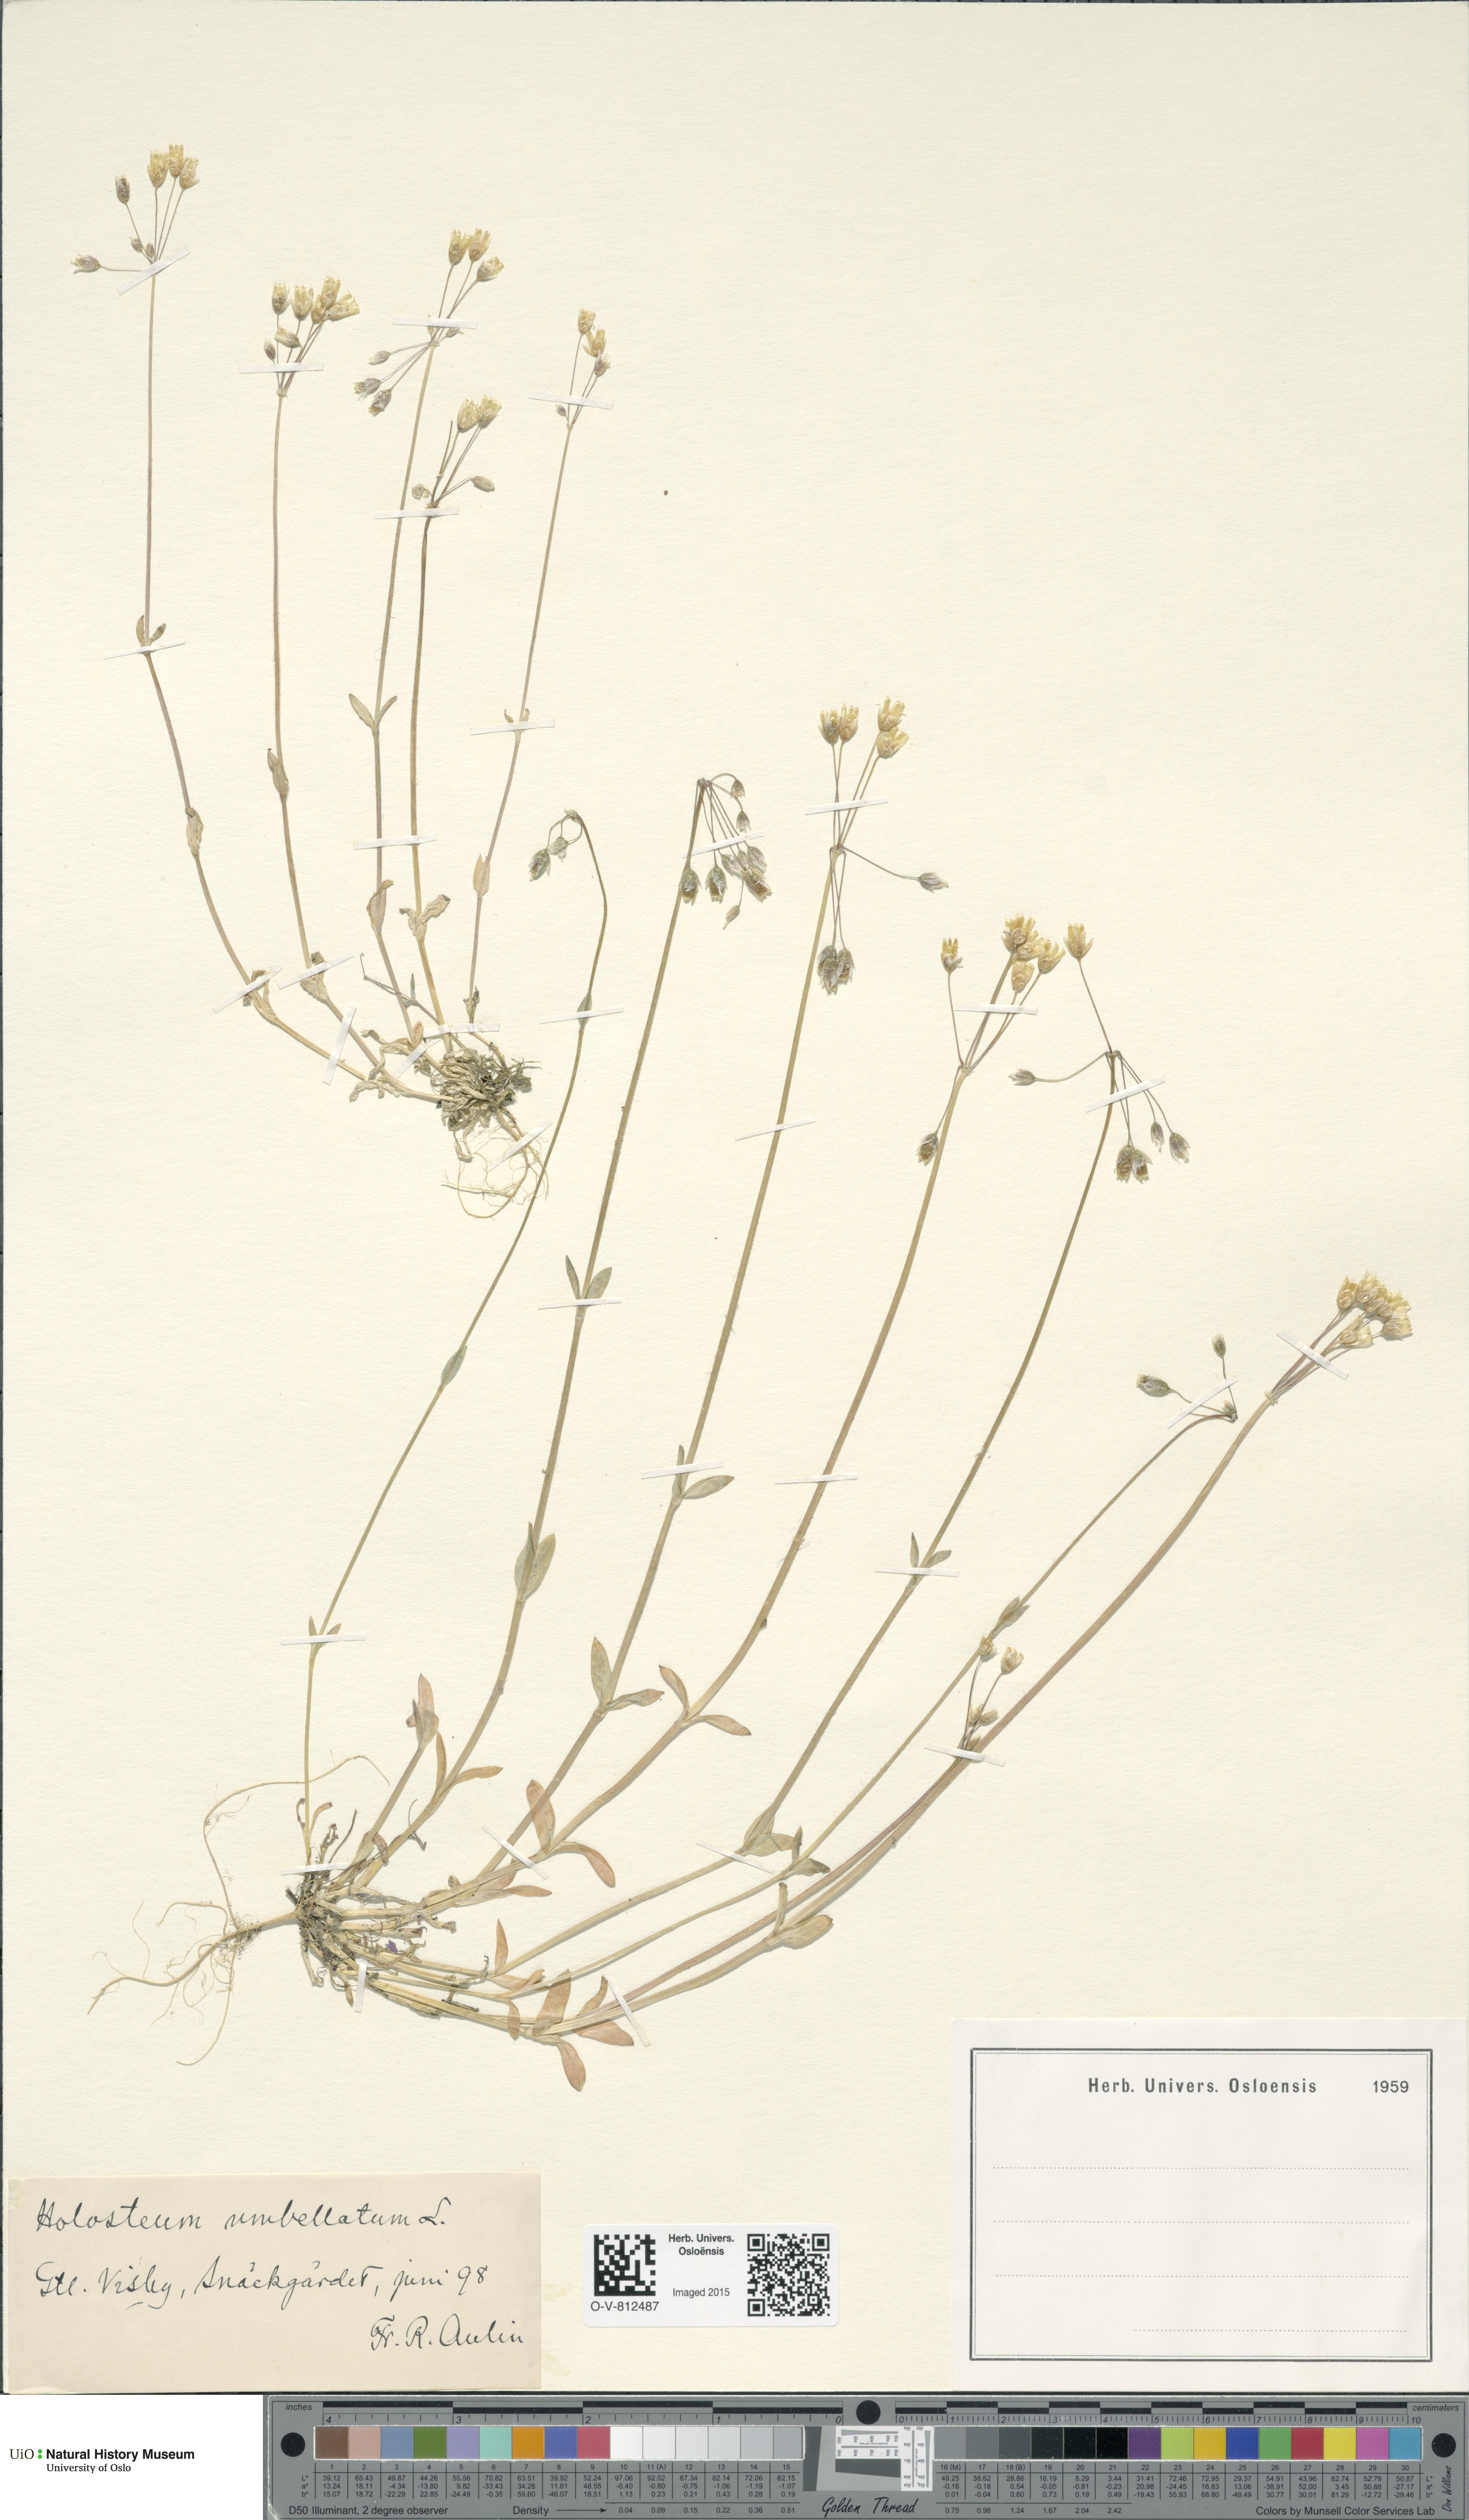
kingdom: Plantae
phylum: Tracheophyta
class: Magnoliopsida
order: Caryophyllales
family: Caryophyllaceae
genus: Holosteum
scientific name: Holosteum umbellatum
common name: Jagged chickweed
